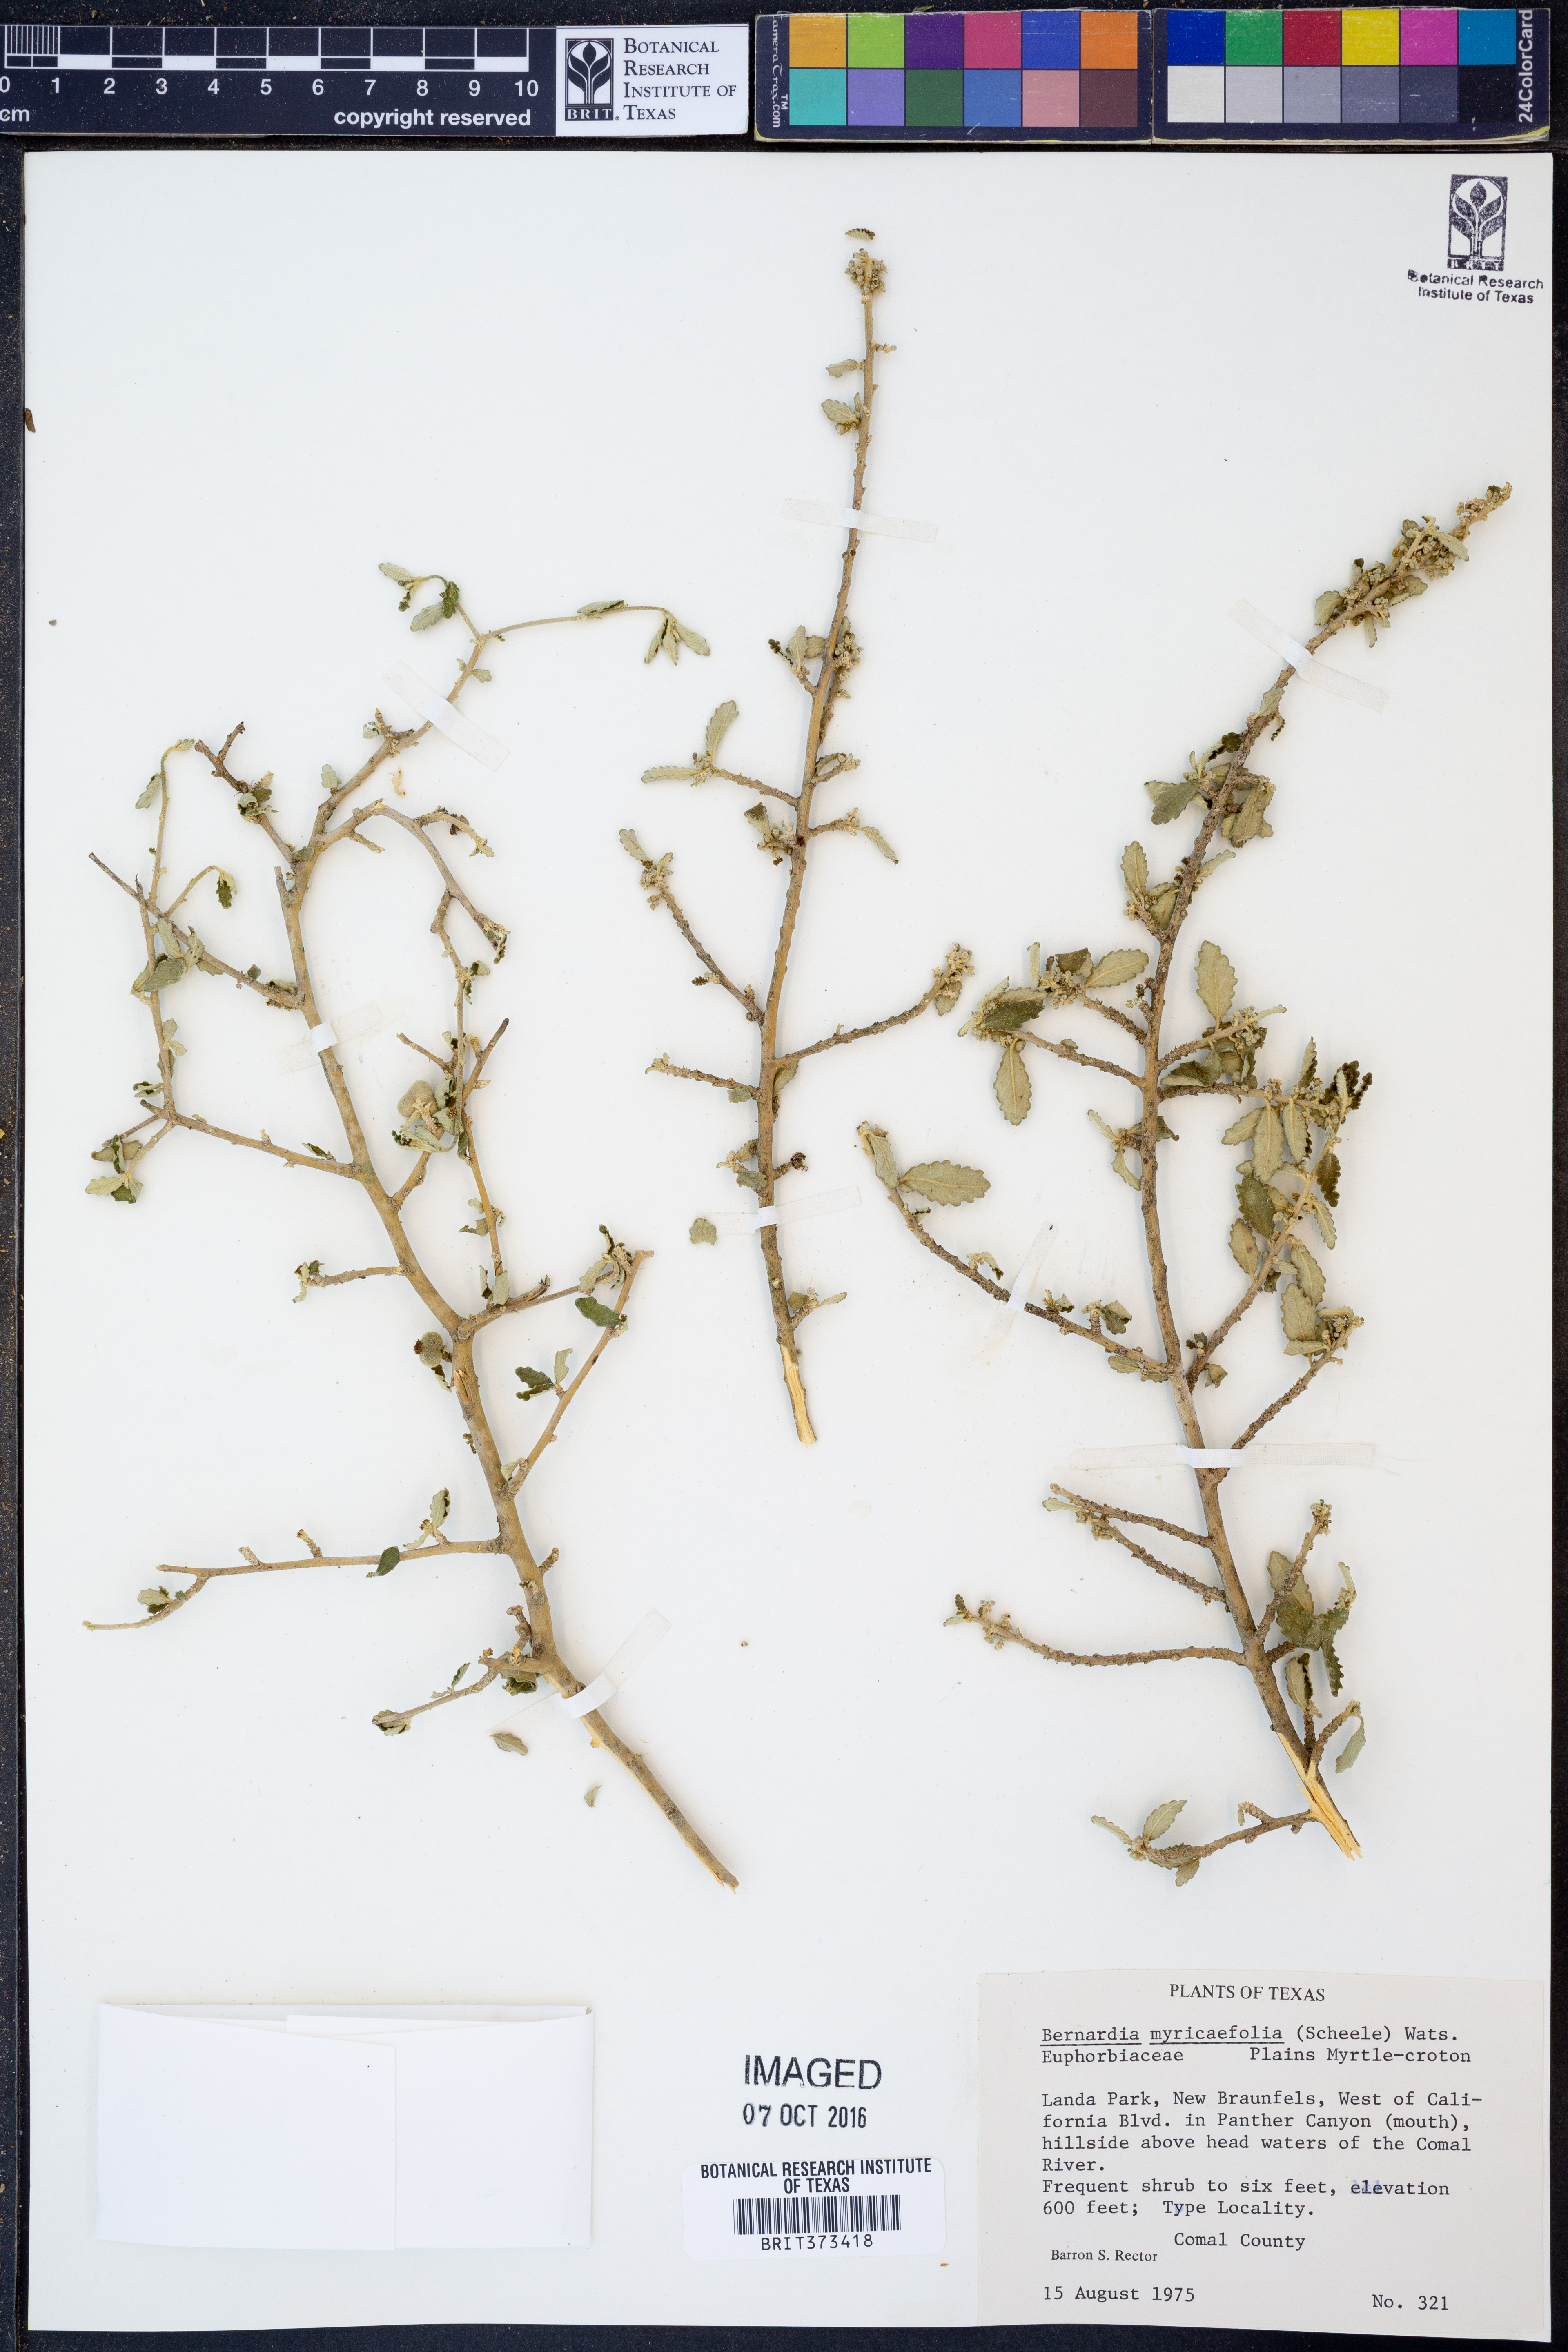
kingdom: Plantae
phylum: Tracheophyta
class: Magnoliopsida
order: Malpighiales
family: Euphorbiaceae
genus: Bernardia
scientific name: Bernardia myricifolia
